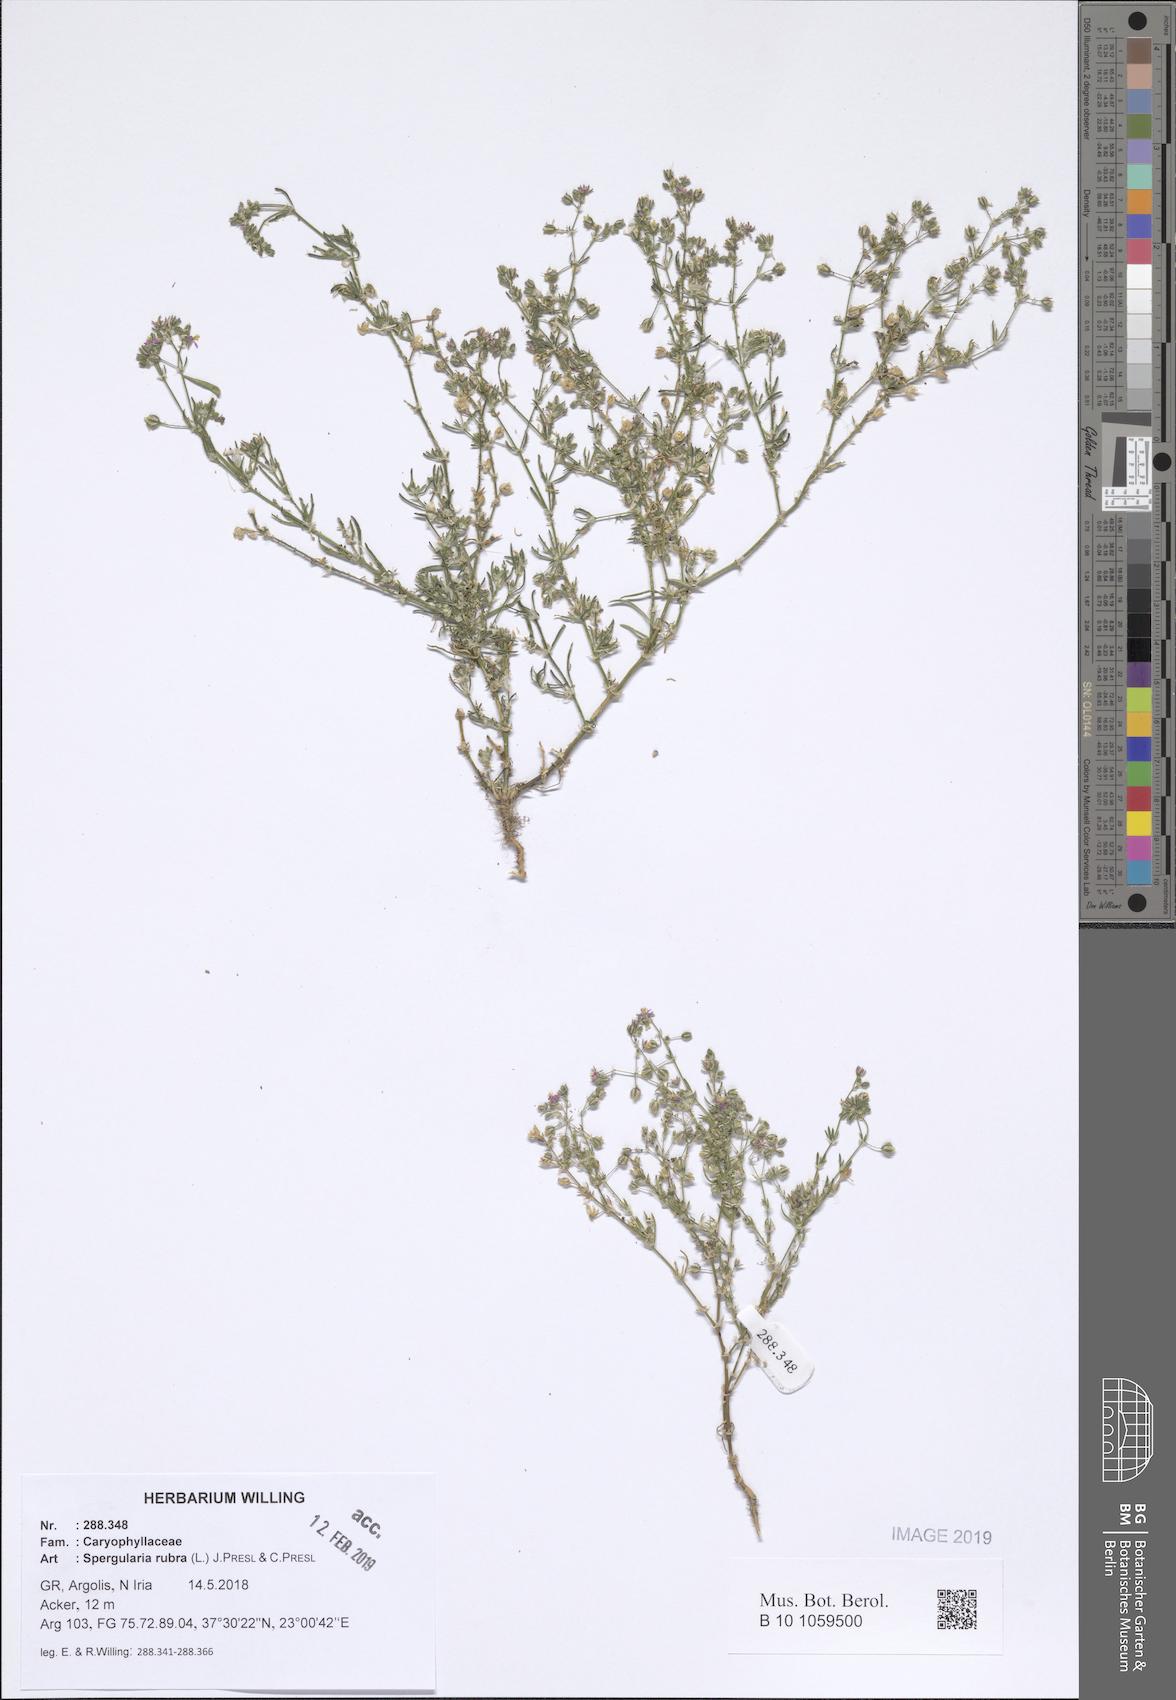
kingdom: Plantae
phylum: Tracheophyta
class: Magnoliopsida
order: Caryophyllales
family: Caryophyllaceae
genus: Spergularia
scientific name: Spergularia rubra
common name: Red sand-spurrey
